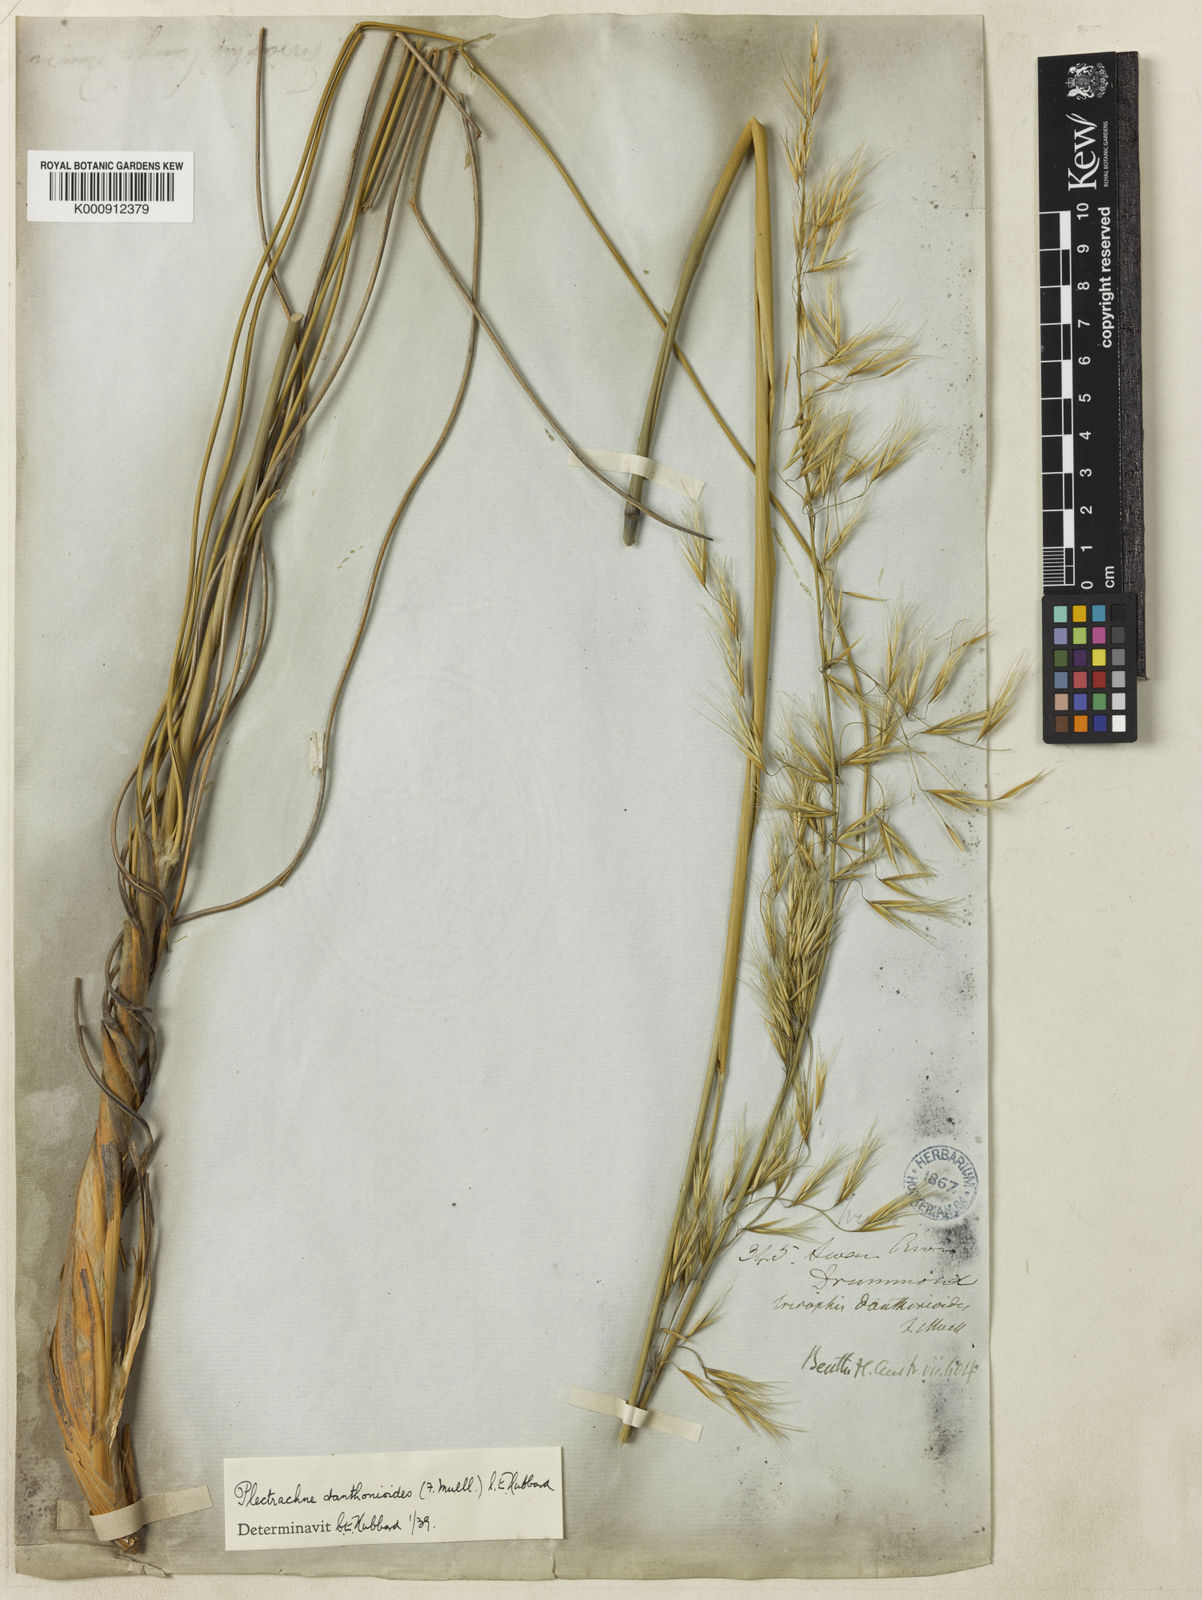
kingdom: Plantae
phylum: Tracheophyta
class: Liliopsida
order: Poales
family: Poaceae
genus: Triodia
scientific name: Triodia danthonioides
